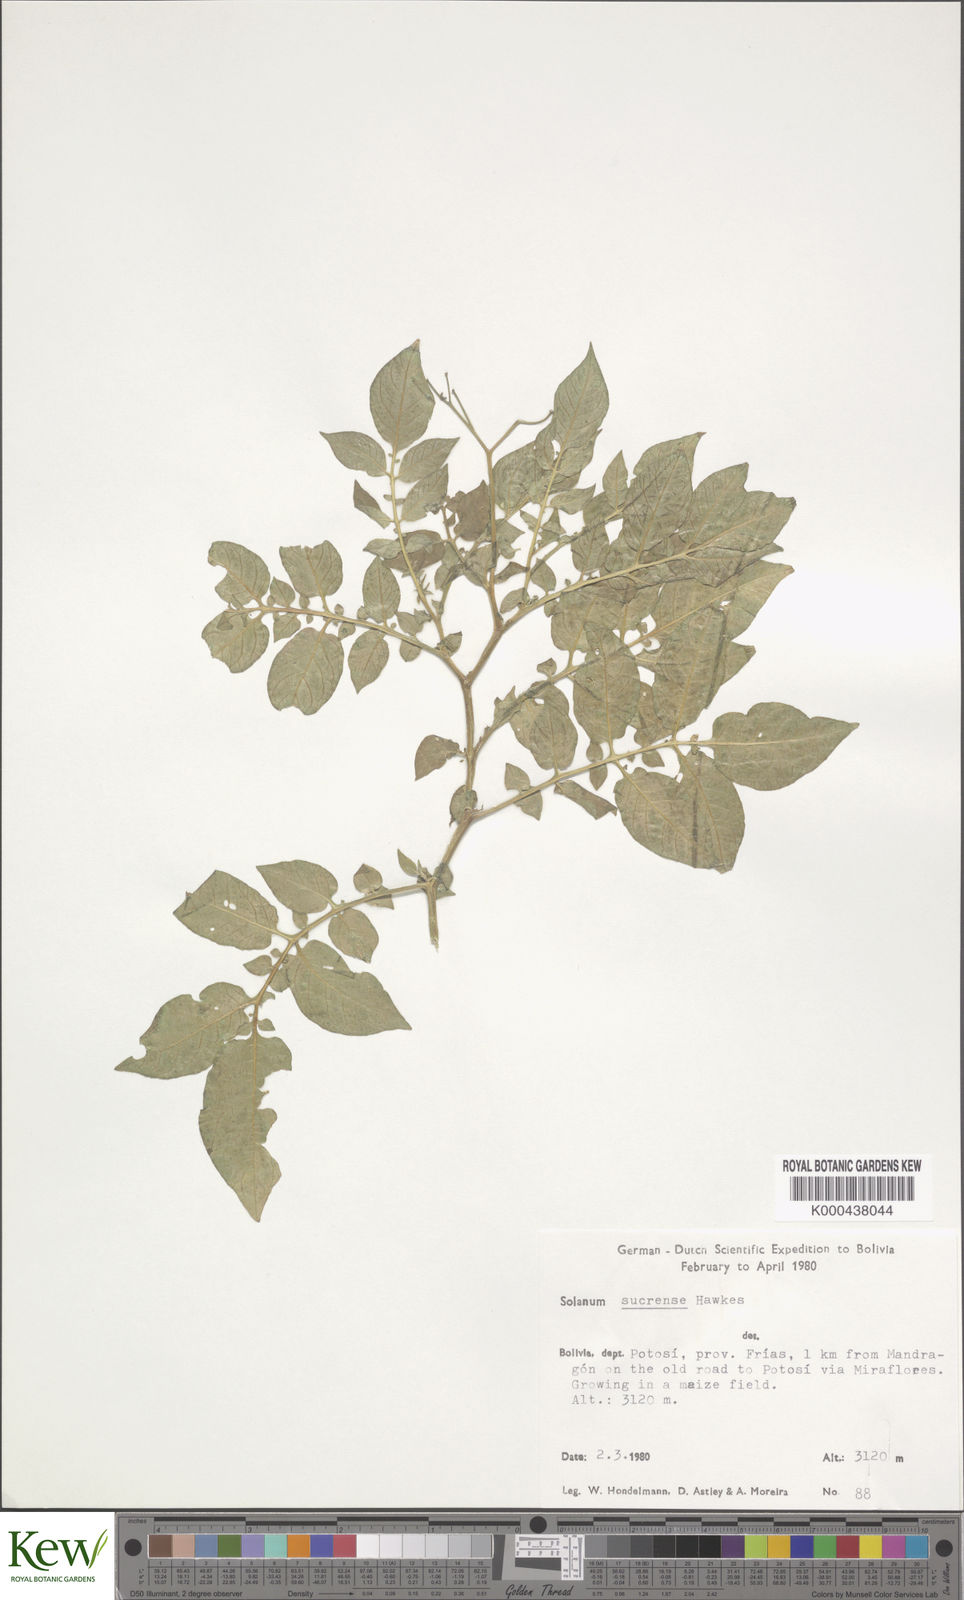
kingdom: Plantae
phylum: Tracheophyta
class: Magnoliopsida
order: Solanales
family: Solanaceae
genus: Solanum
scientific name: Solanum brevicaule
